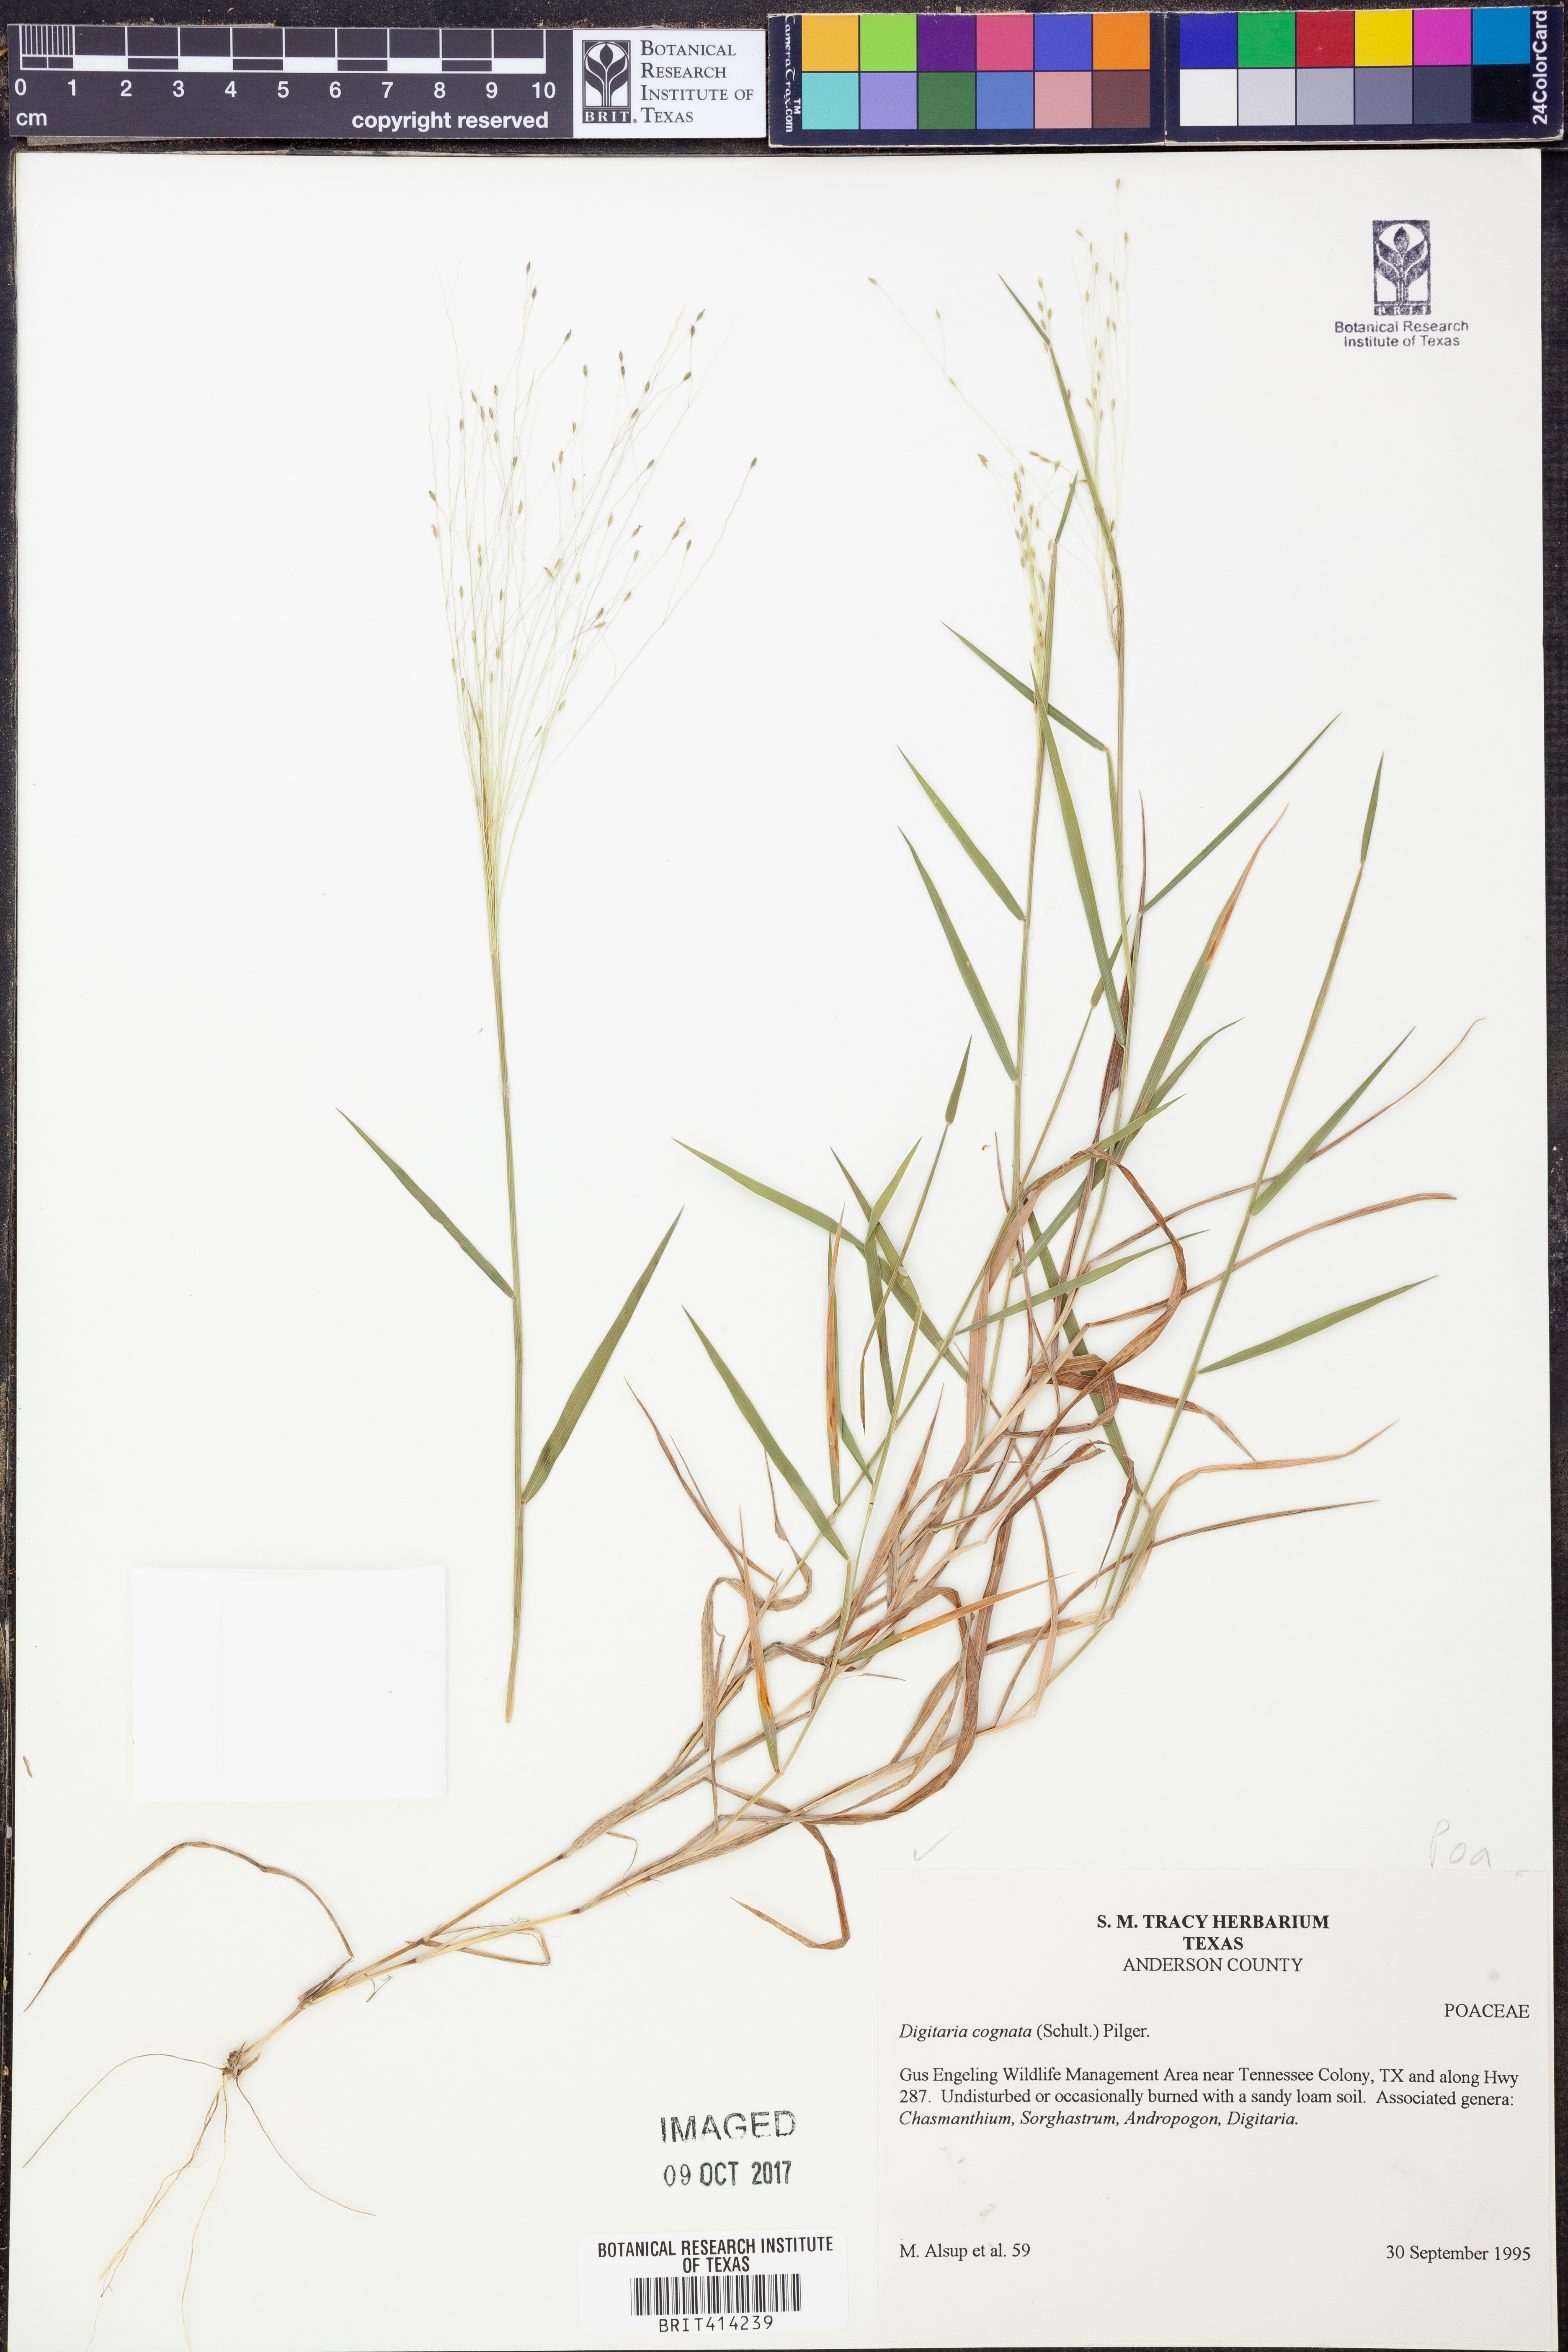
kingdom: Plantae
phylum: Tracheophyta
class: Liliopsida
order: Poales
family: Poaceae
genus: Digitaria
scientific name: Digitaria cognata
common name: Fall witchgrass
